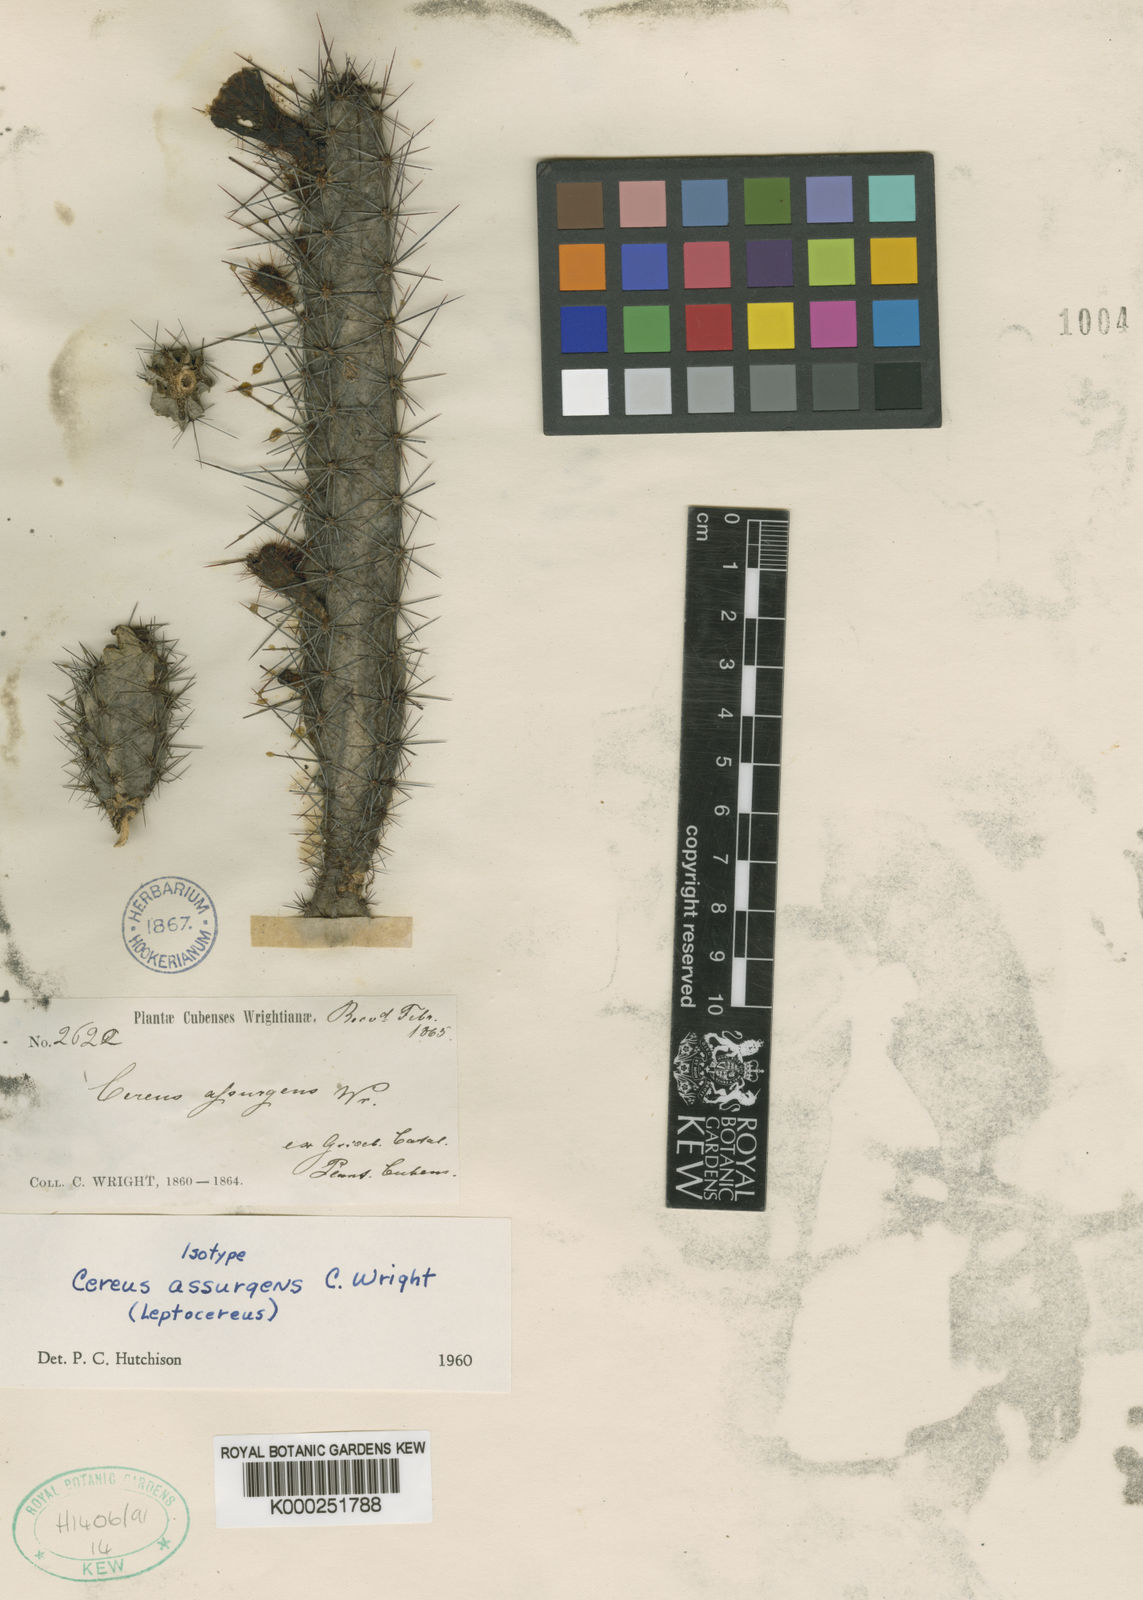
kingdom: Plantae
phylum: Tracheophyta
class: Magnoliopsida
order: Caryophyllales
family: Cactaceae
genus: Leptocereus
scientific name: Leptocereus assurgens
